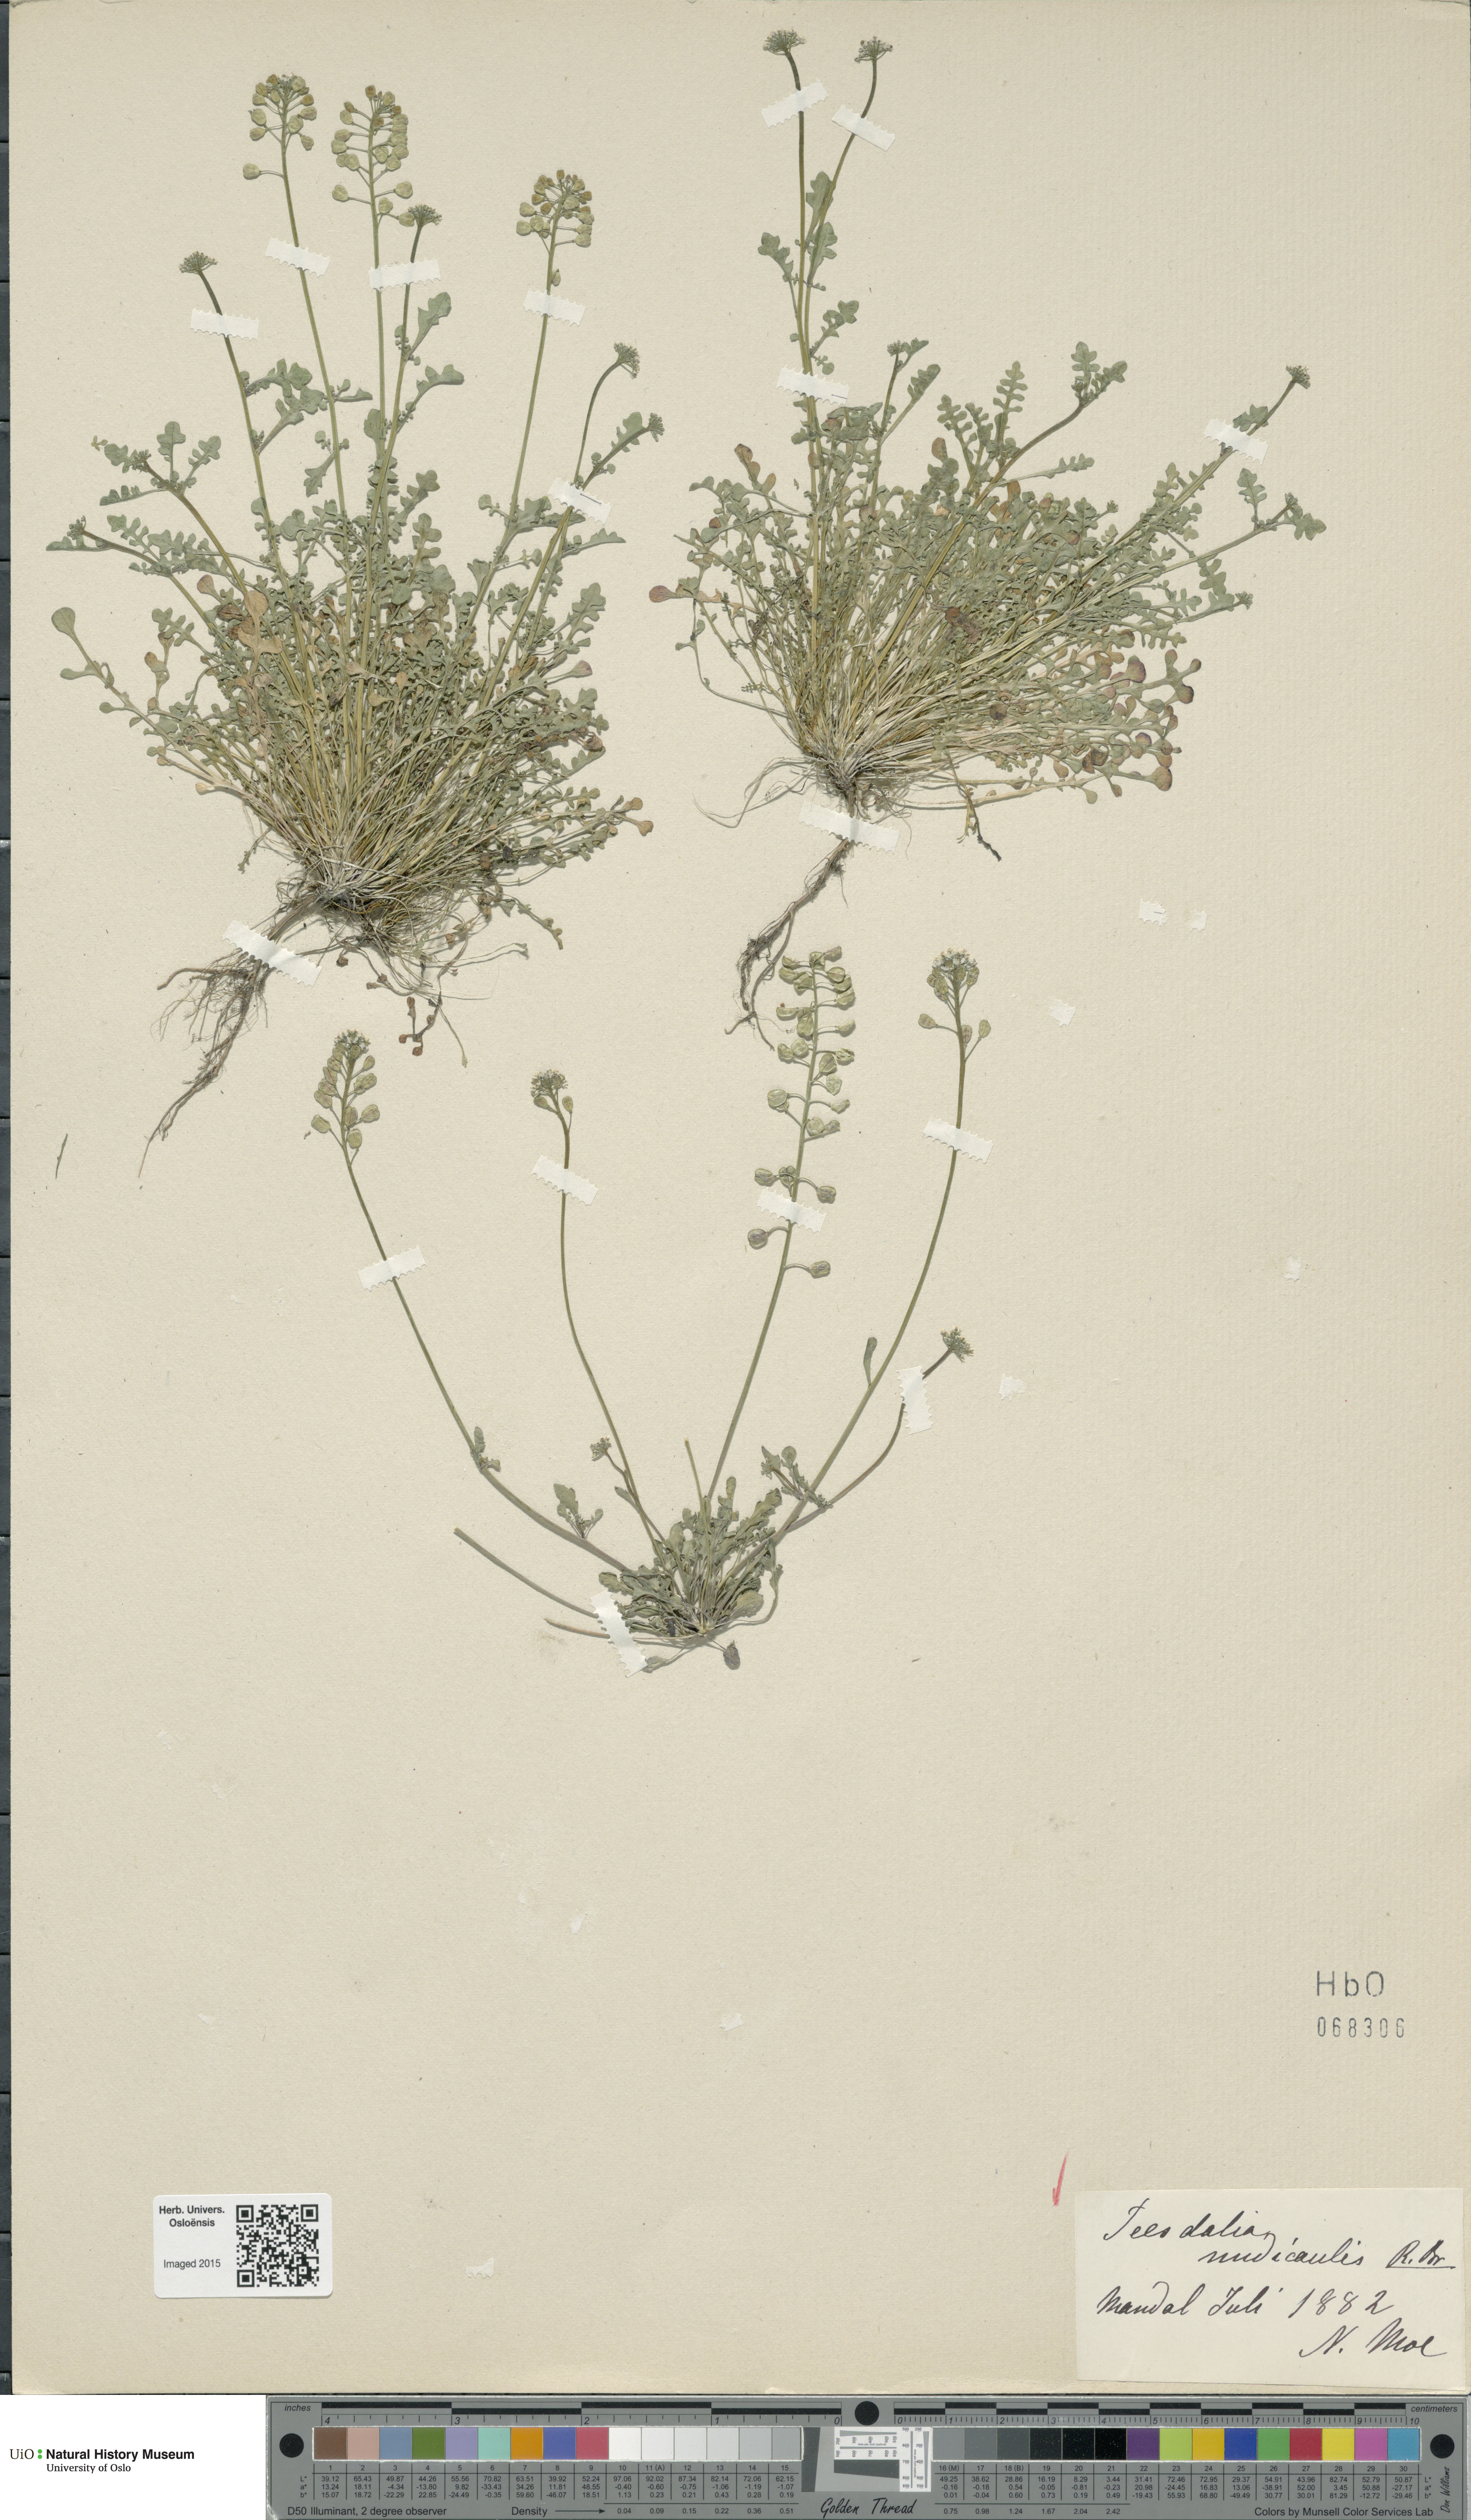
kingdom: Plantae
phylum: Tracheophyta
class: Magnoliopsida
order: Brassicales
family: Brassicaceae
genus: Teesdalia
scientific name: Teesdalia nudicaulis
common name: Shepherd's cress
